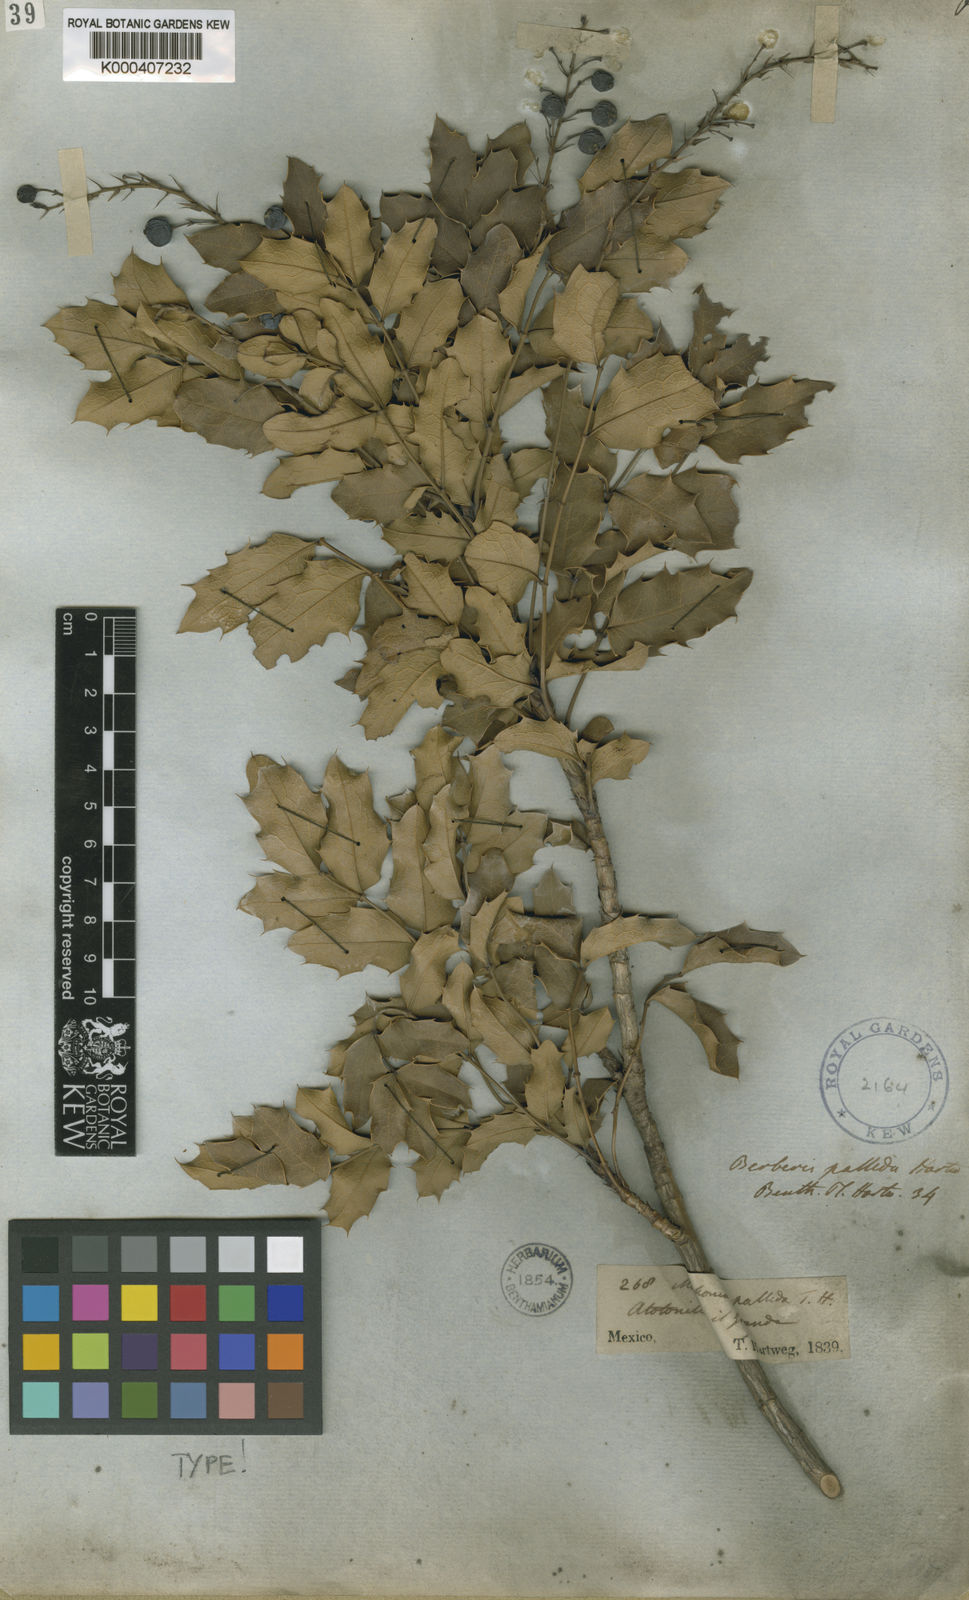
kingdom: Plantae
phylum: Tracheophyta
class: Magnoliopsida
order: Ranunculales
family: Berberidaceae
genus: Mahonia
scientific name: Mahonia pallida
